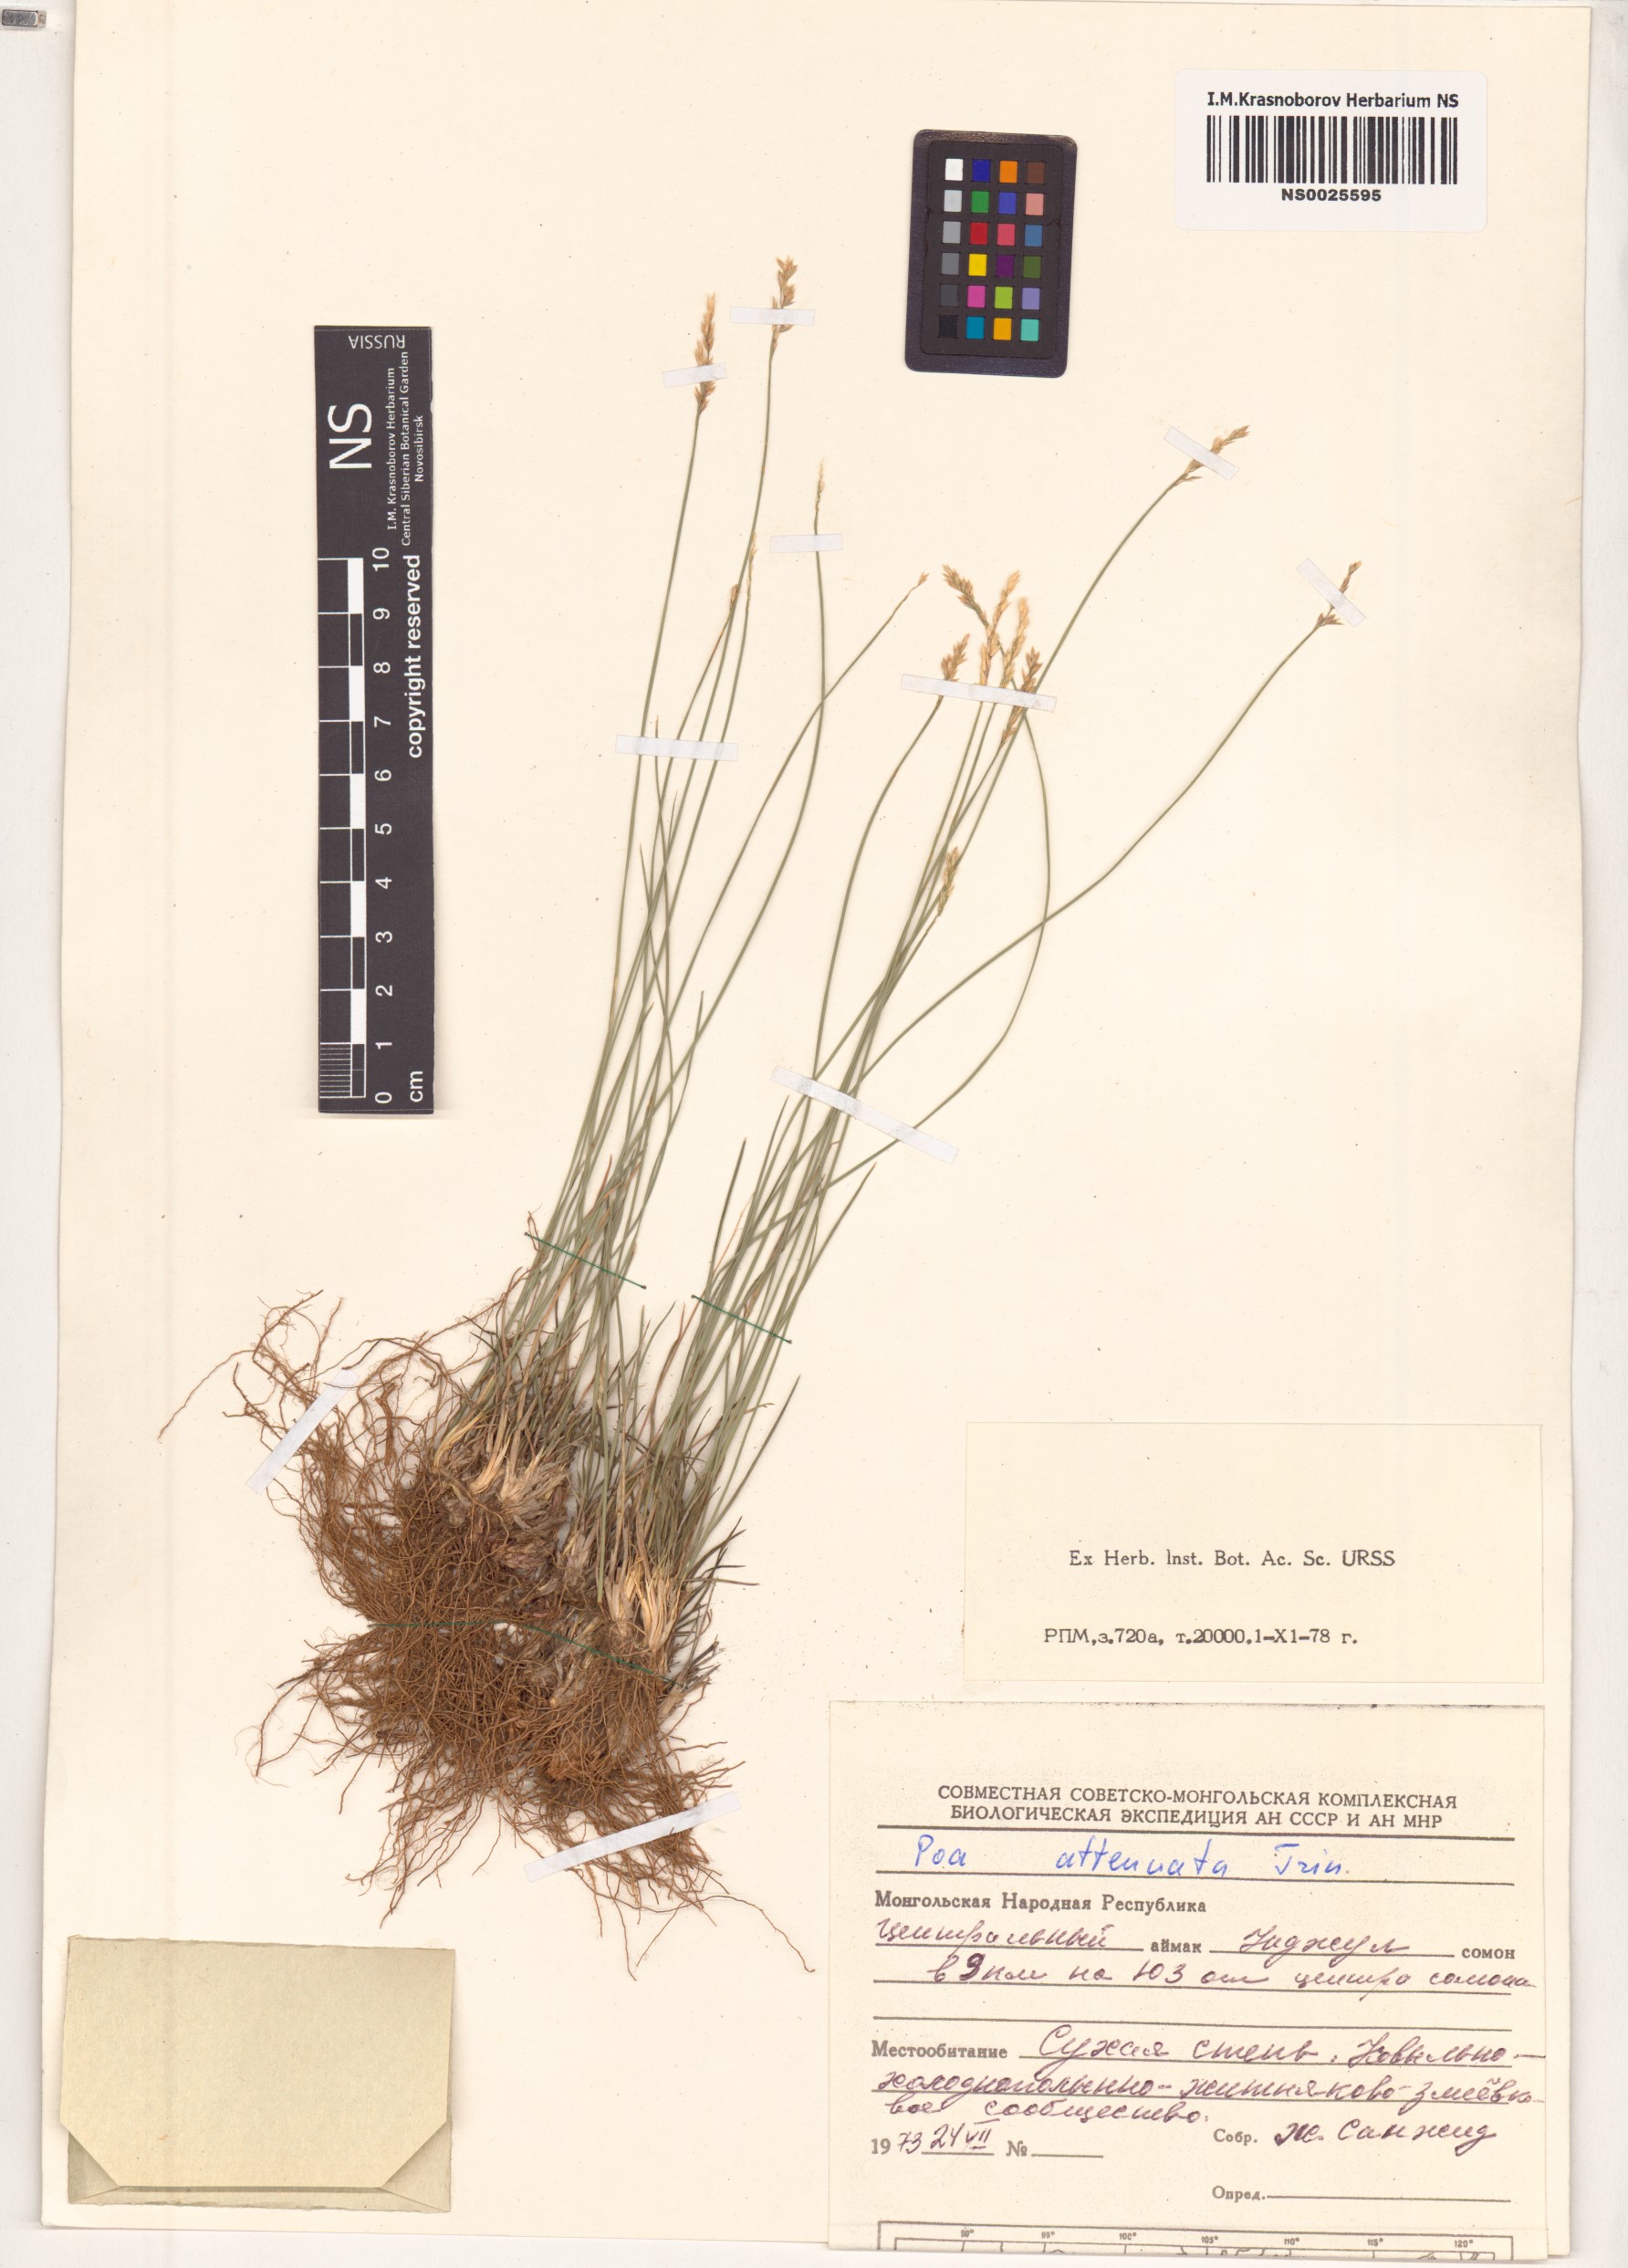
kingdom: Plantae
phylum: Tracheophyta
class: Liliopsida
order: Poales
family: Poaceae
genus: Poa
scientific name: Poa attenuata
